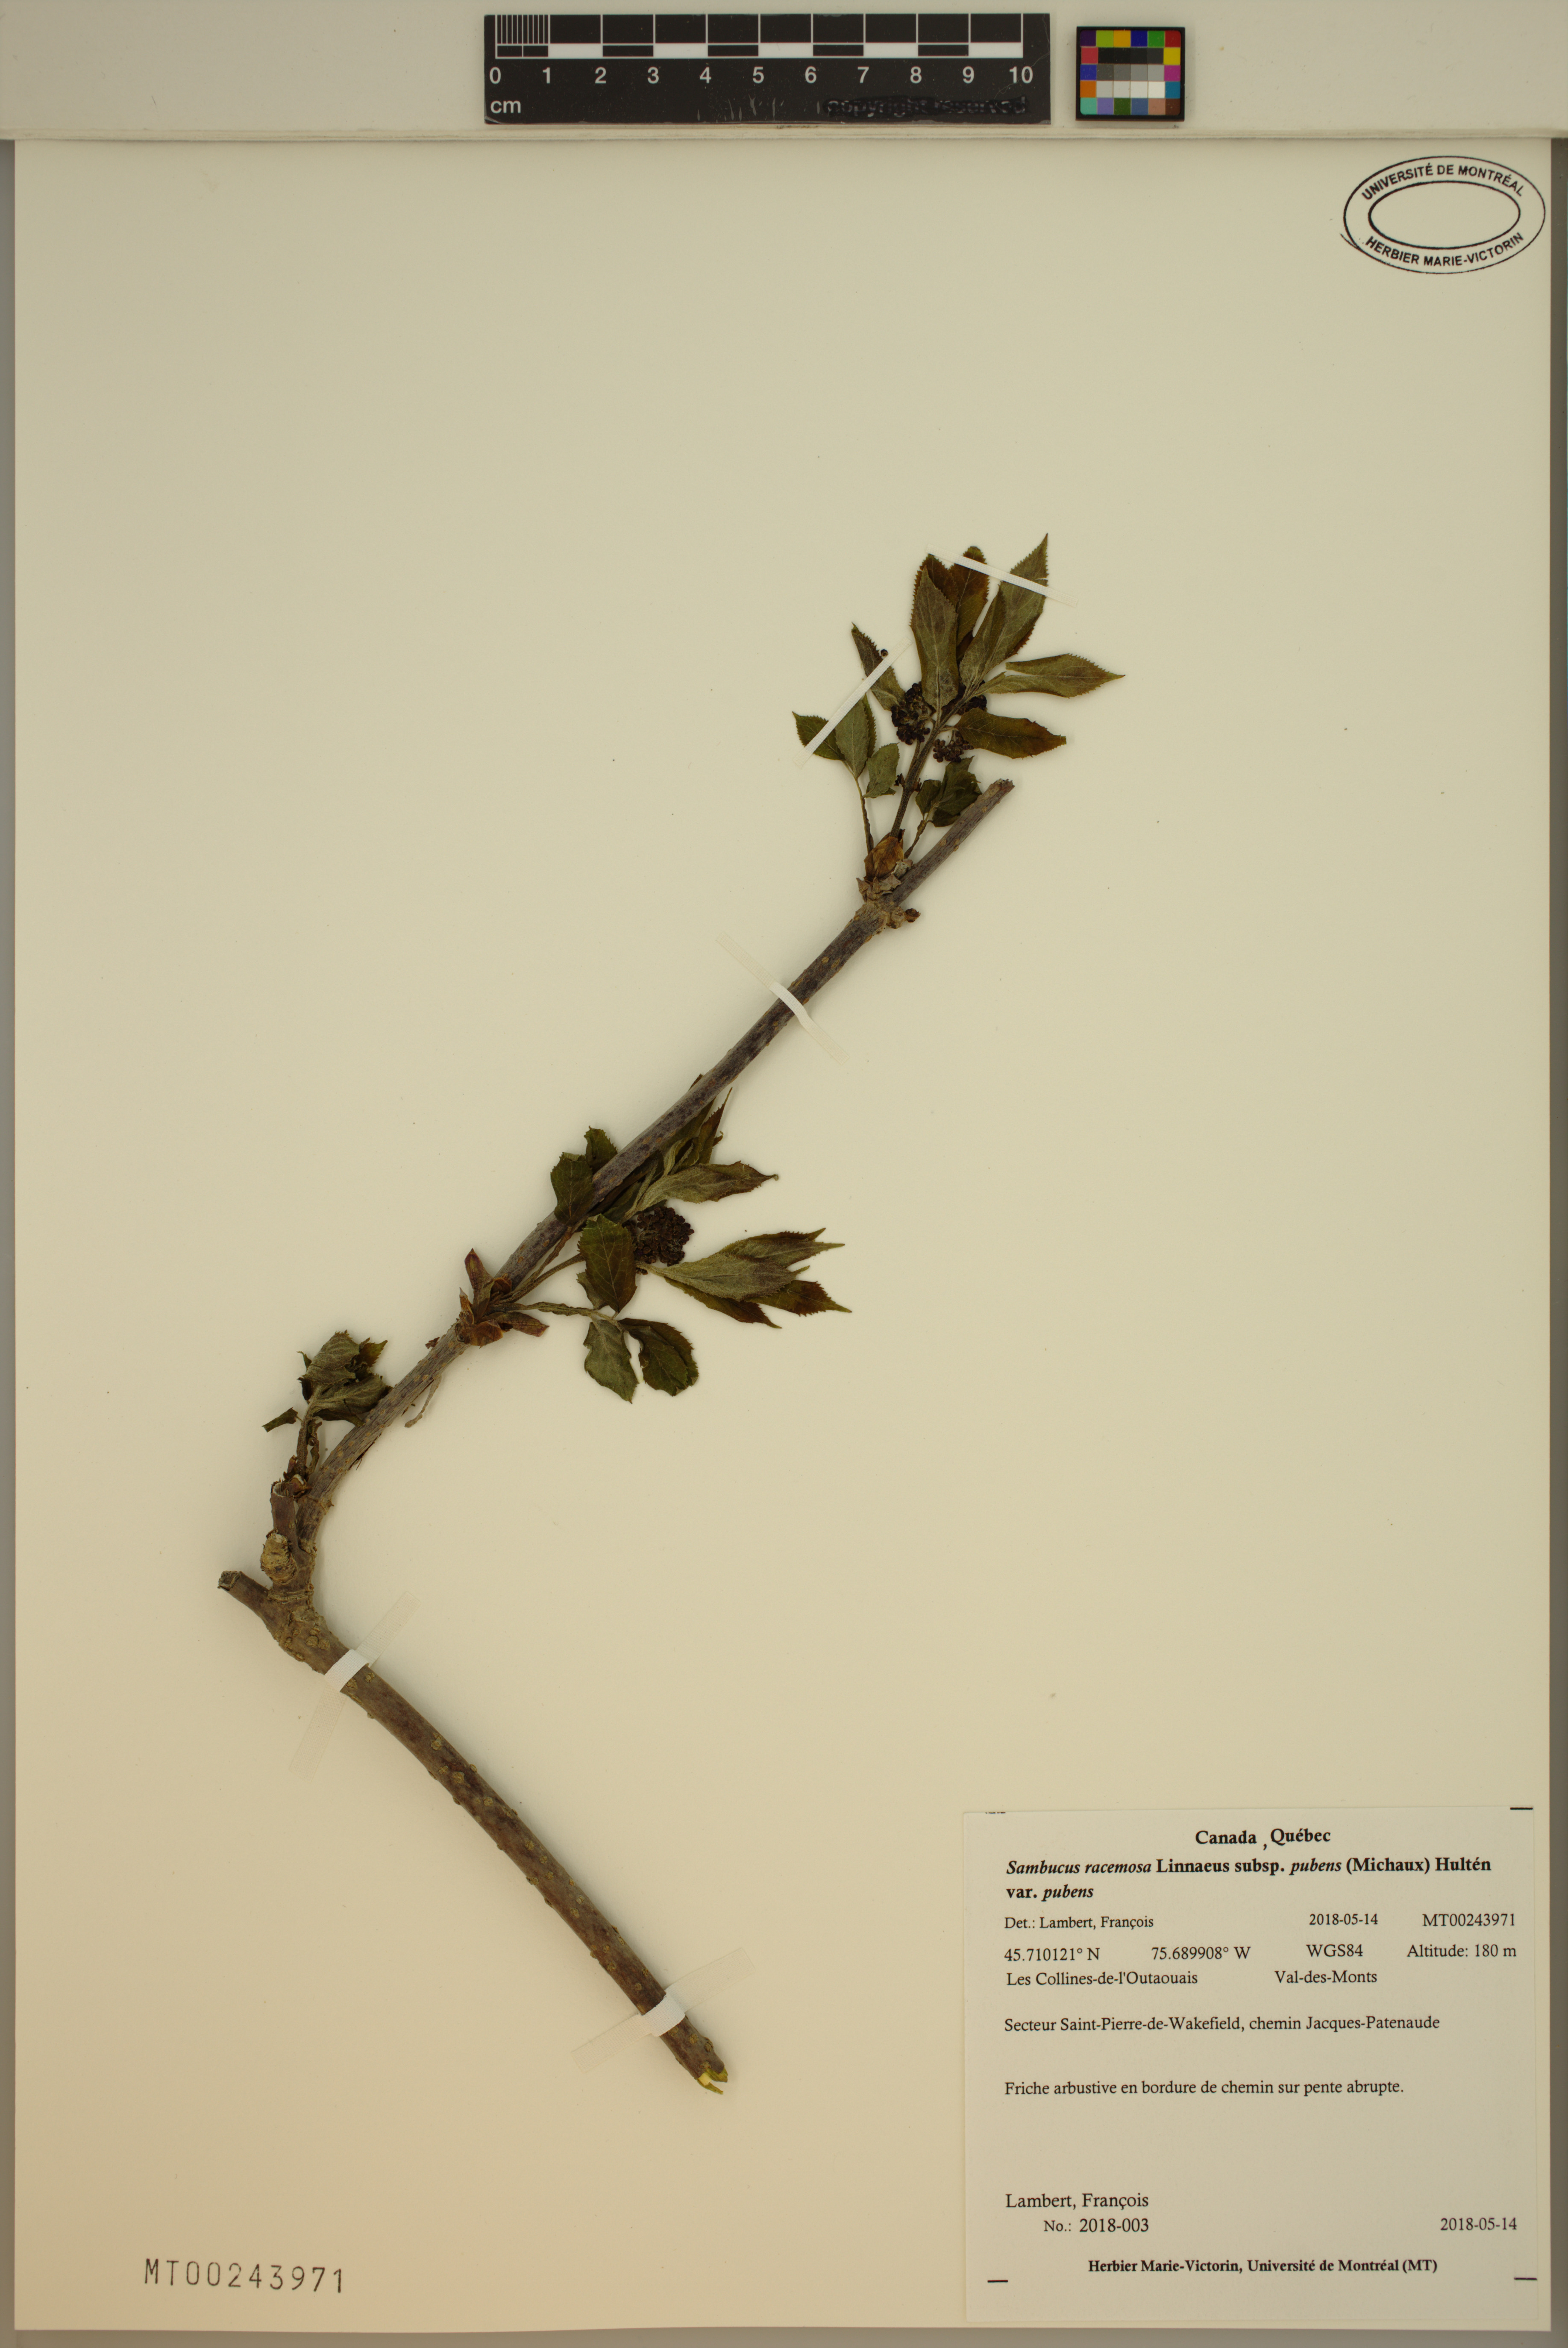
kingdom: Plantae
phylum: Tracheophyta
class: Magnoliopsida
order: Dipsacales
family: Viburnaceae
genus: Sambucus
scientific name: Sambucus racemosa
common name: Red-berried elder
